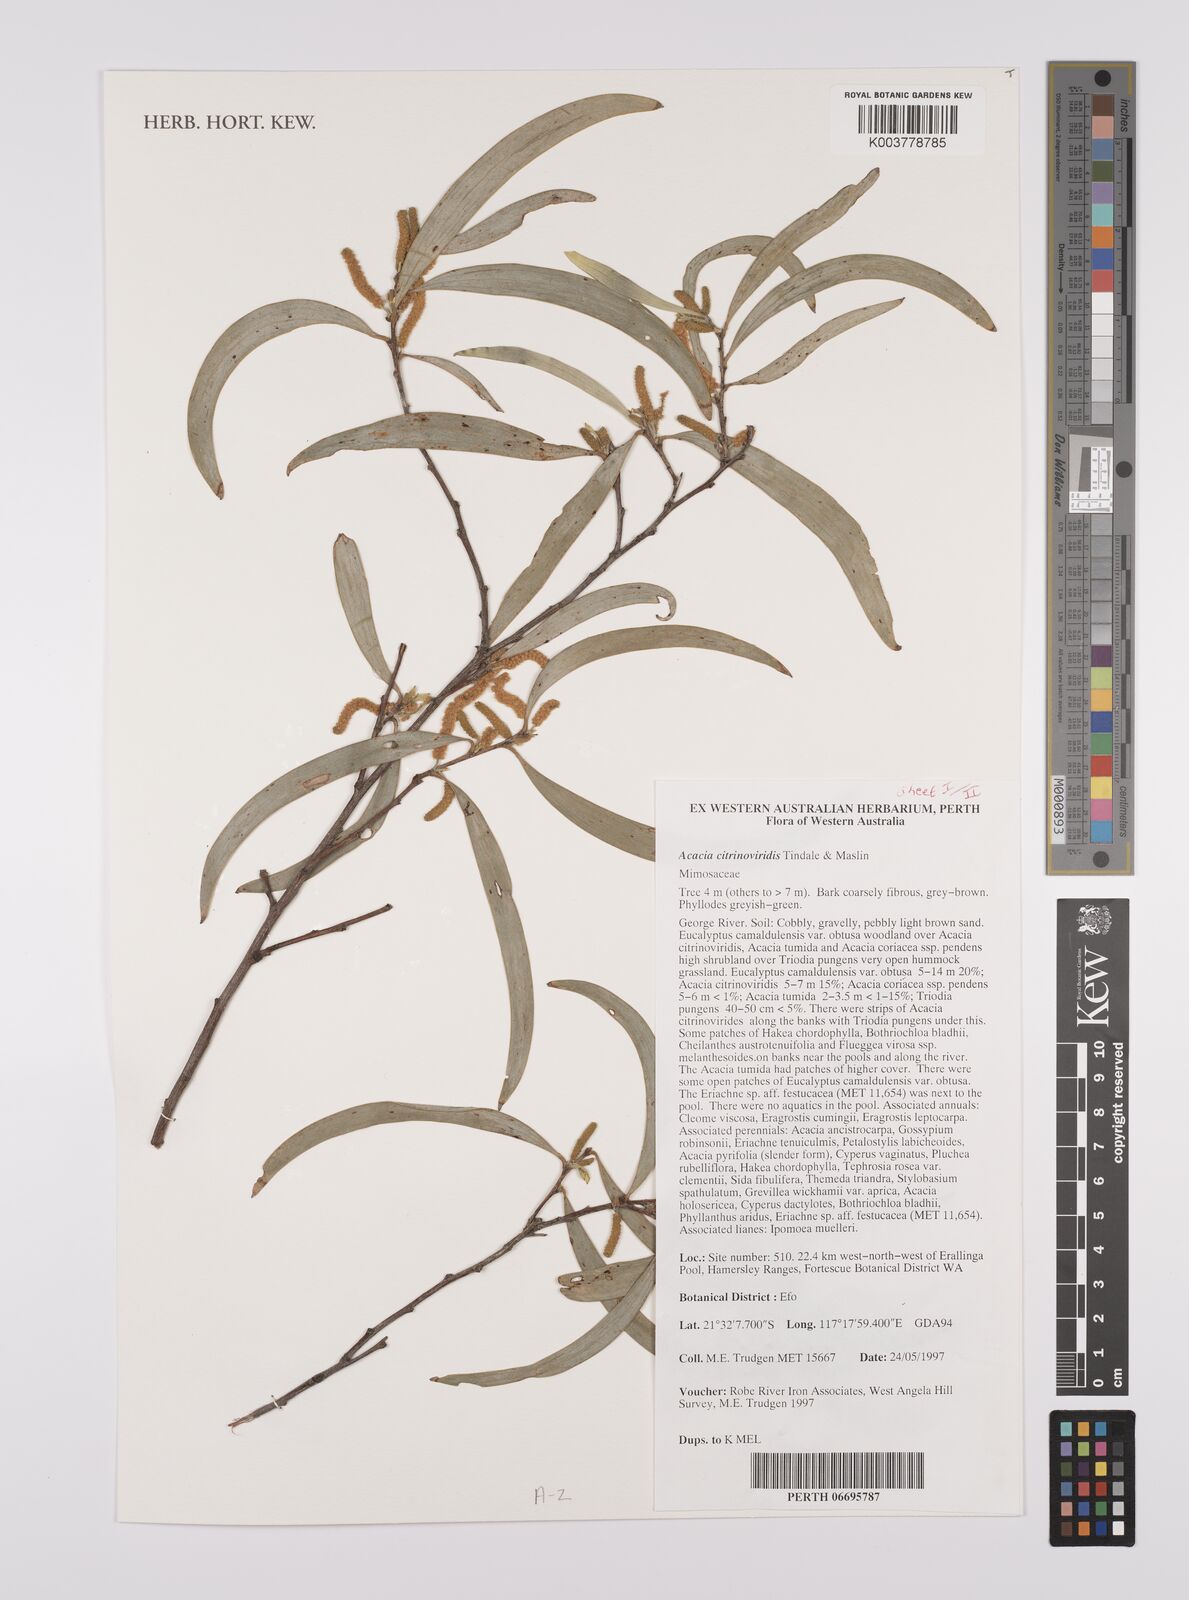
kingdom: Plantae
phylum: Tracheophyta
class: Magnoliopsida
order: Fabales
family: Fabaceae
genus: Acacia
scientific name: Acacia citrinoviridis
